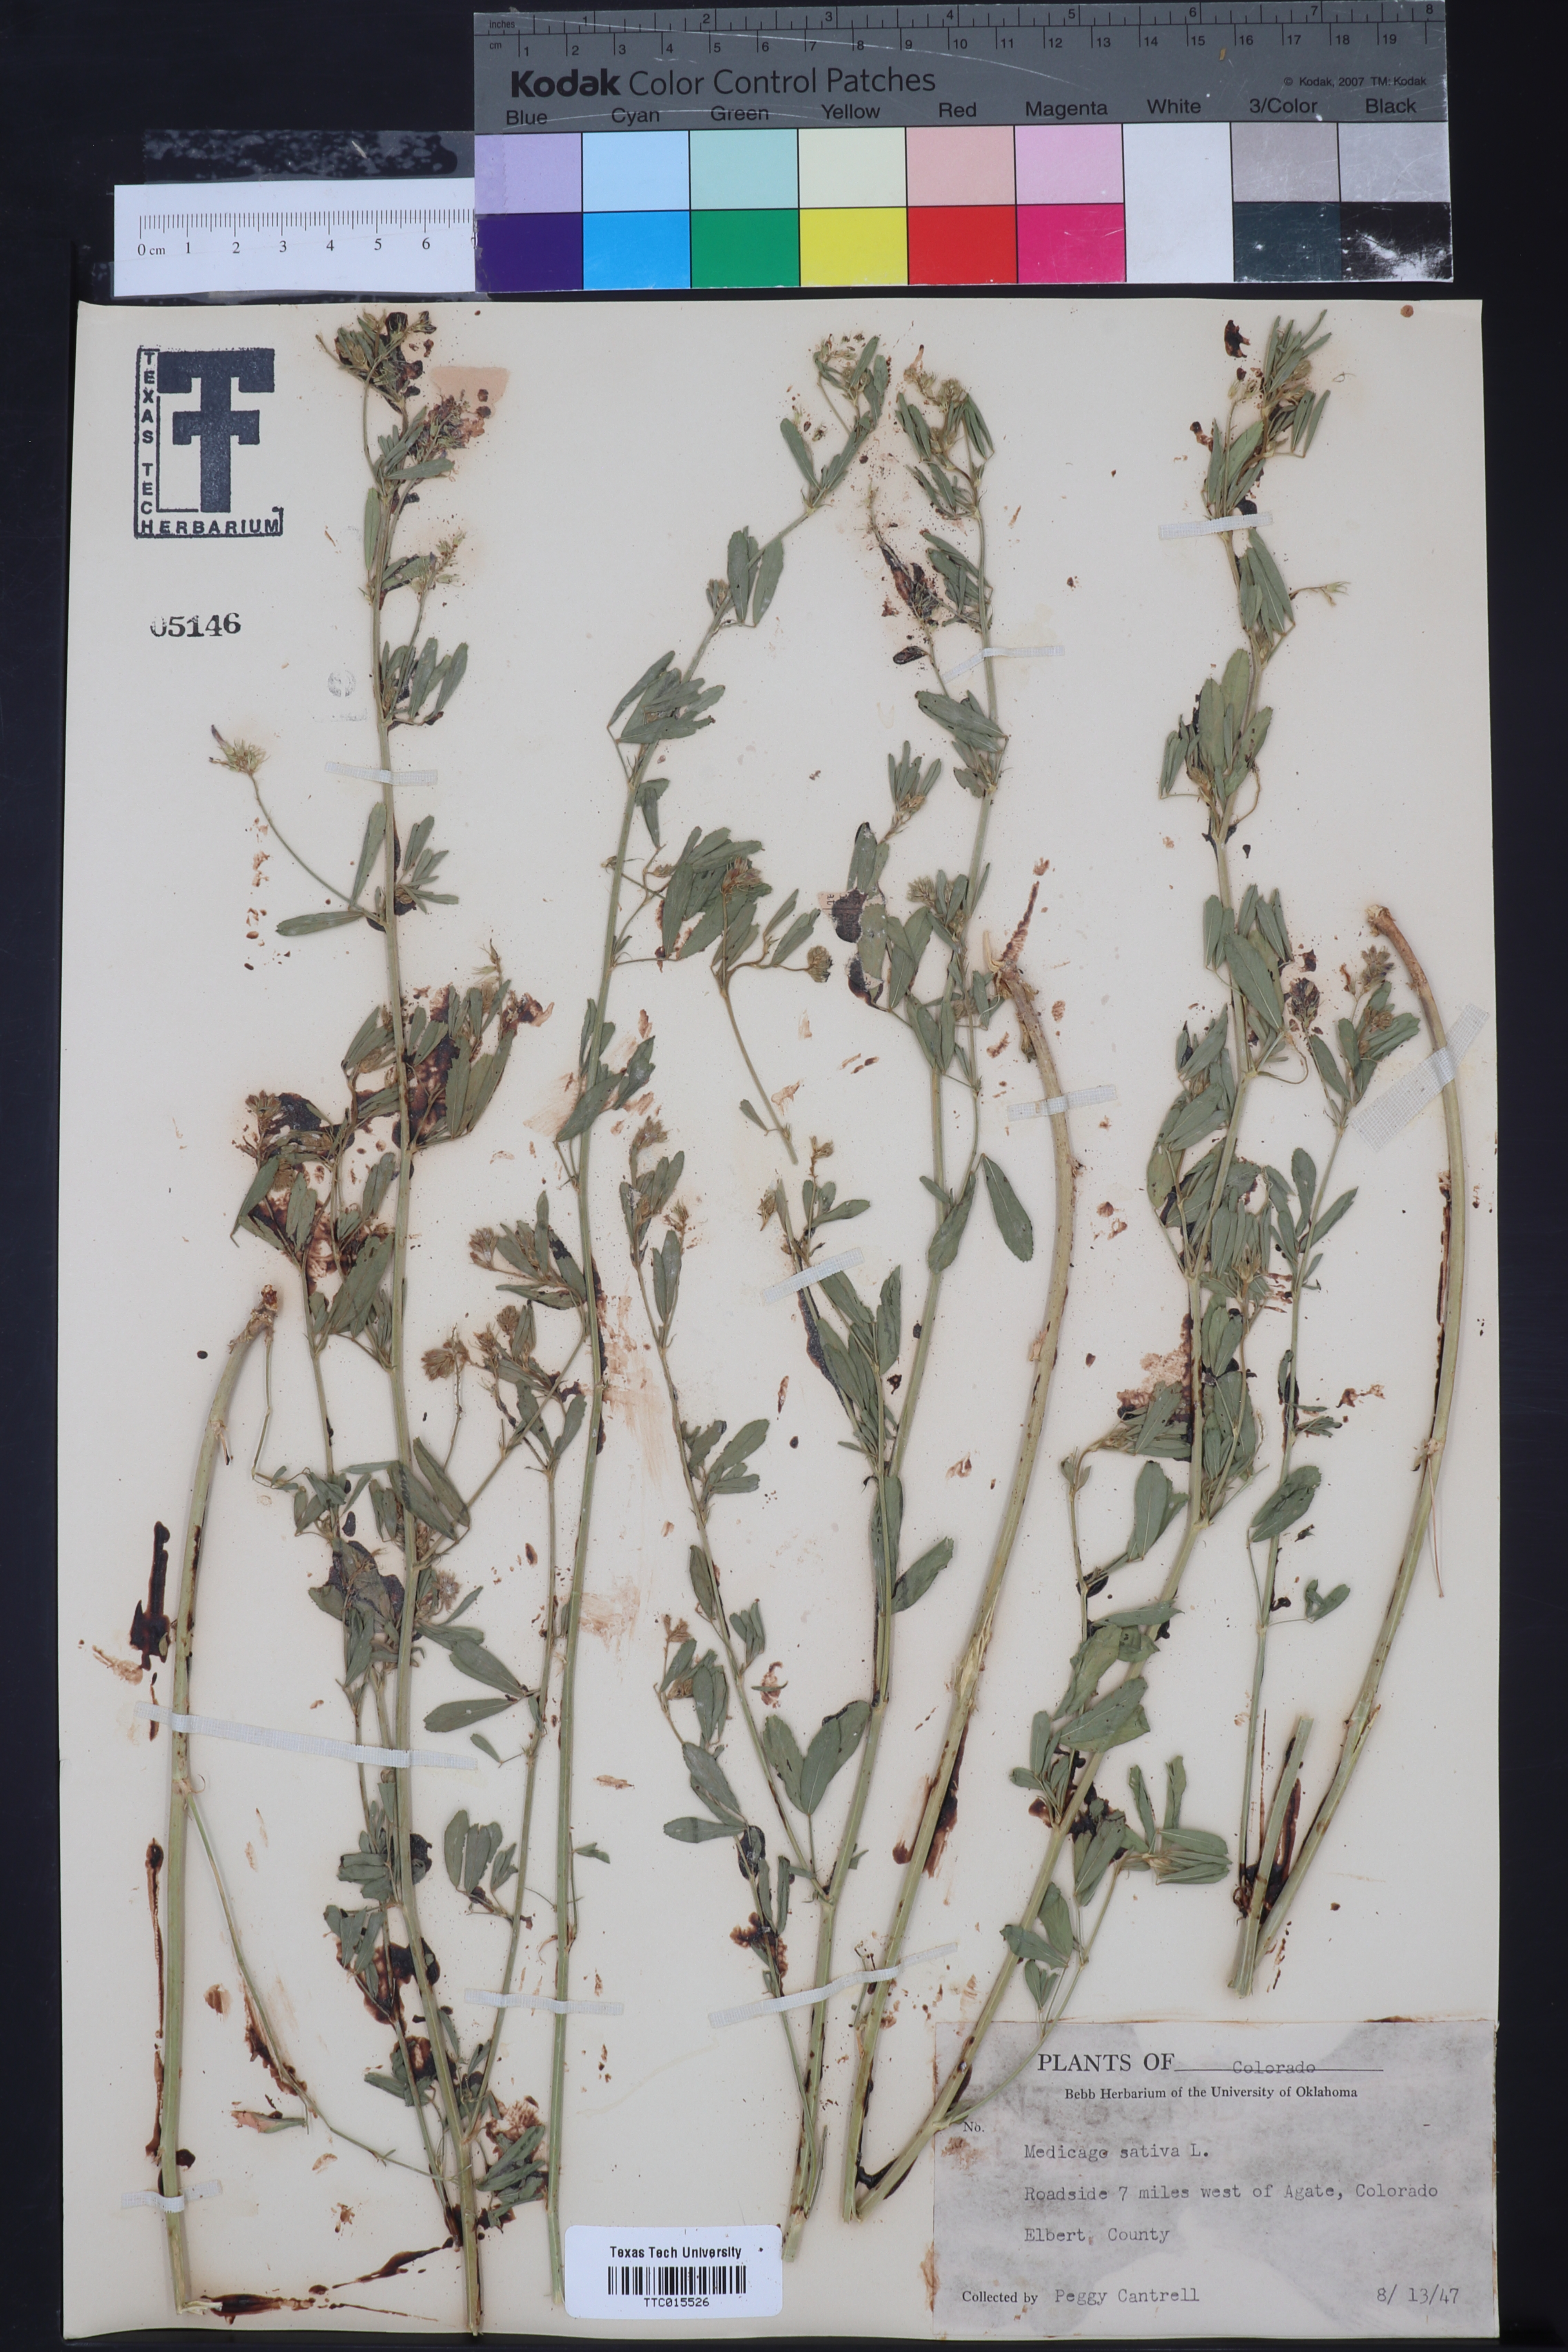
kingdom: Plantae
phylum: Tracheophyta
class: Magnoliopsida
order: Fabales
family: Fabaceae
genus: Medicago
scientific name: Medicago sativa
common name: Alfalfa
